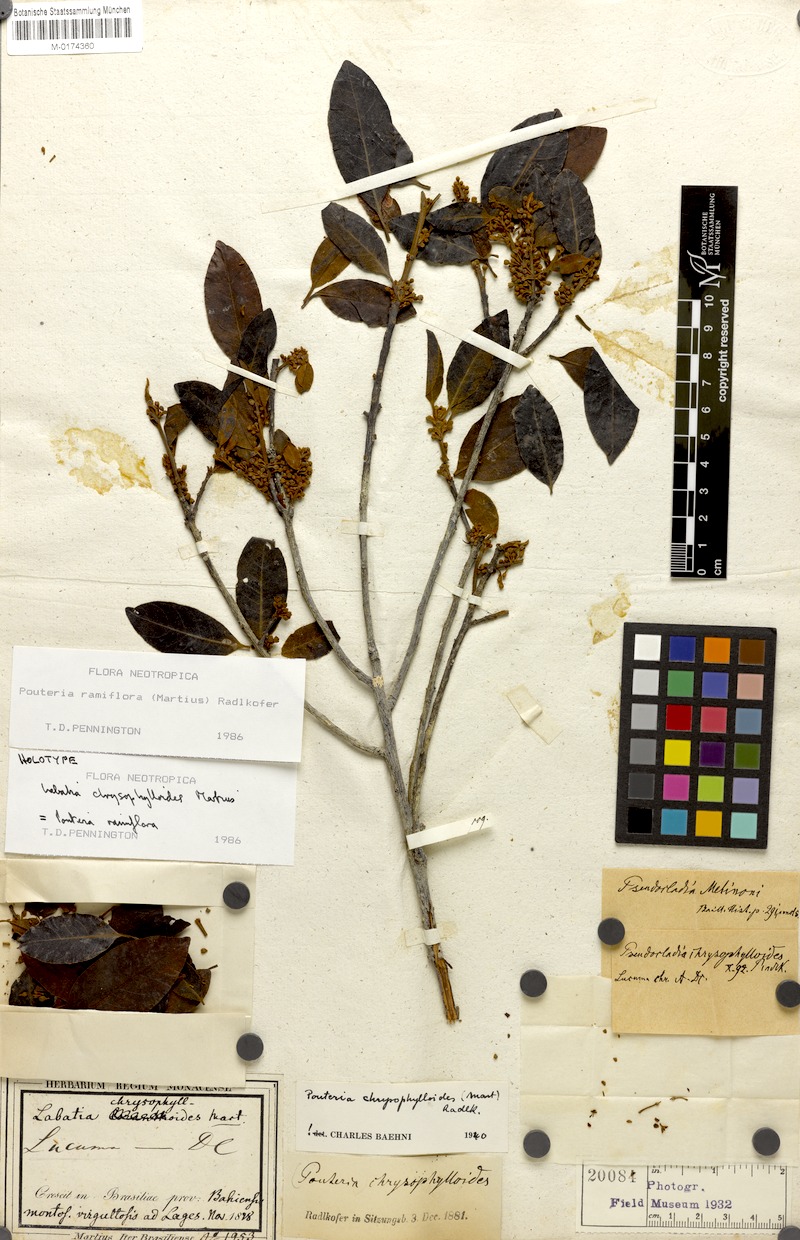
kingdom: Plantae
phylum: Tracheophyta
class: Magnoliopsida
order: Ericales
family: Sapotaceae
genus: Pouteria
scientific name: Pouteria ramiflora
